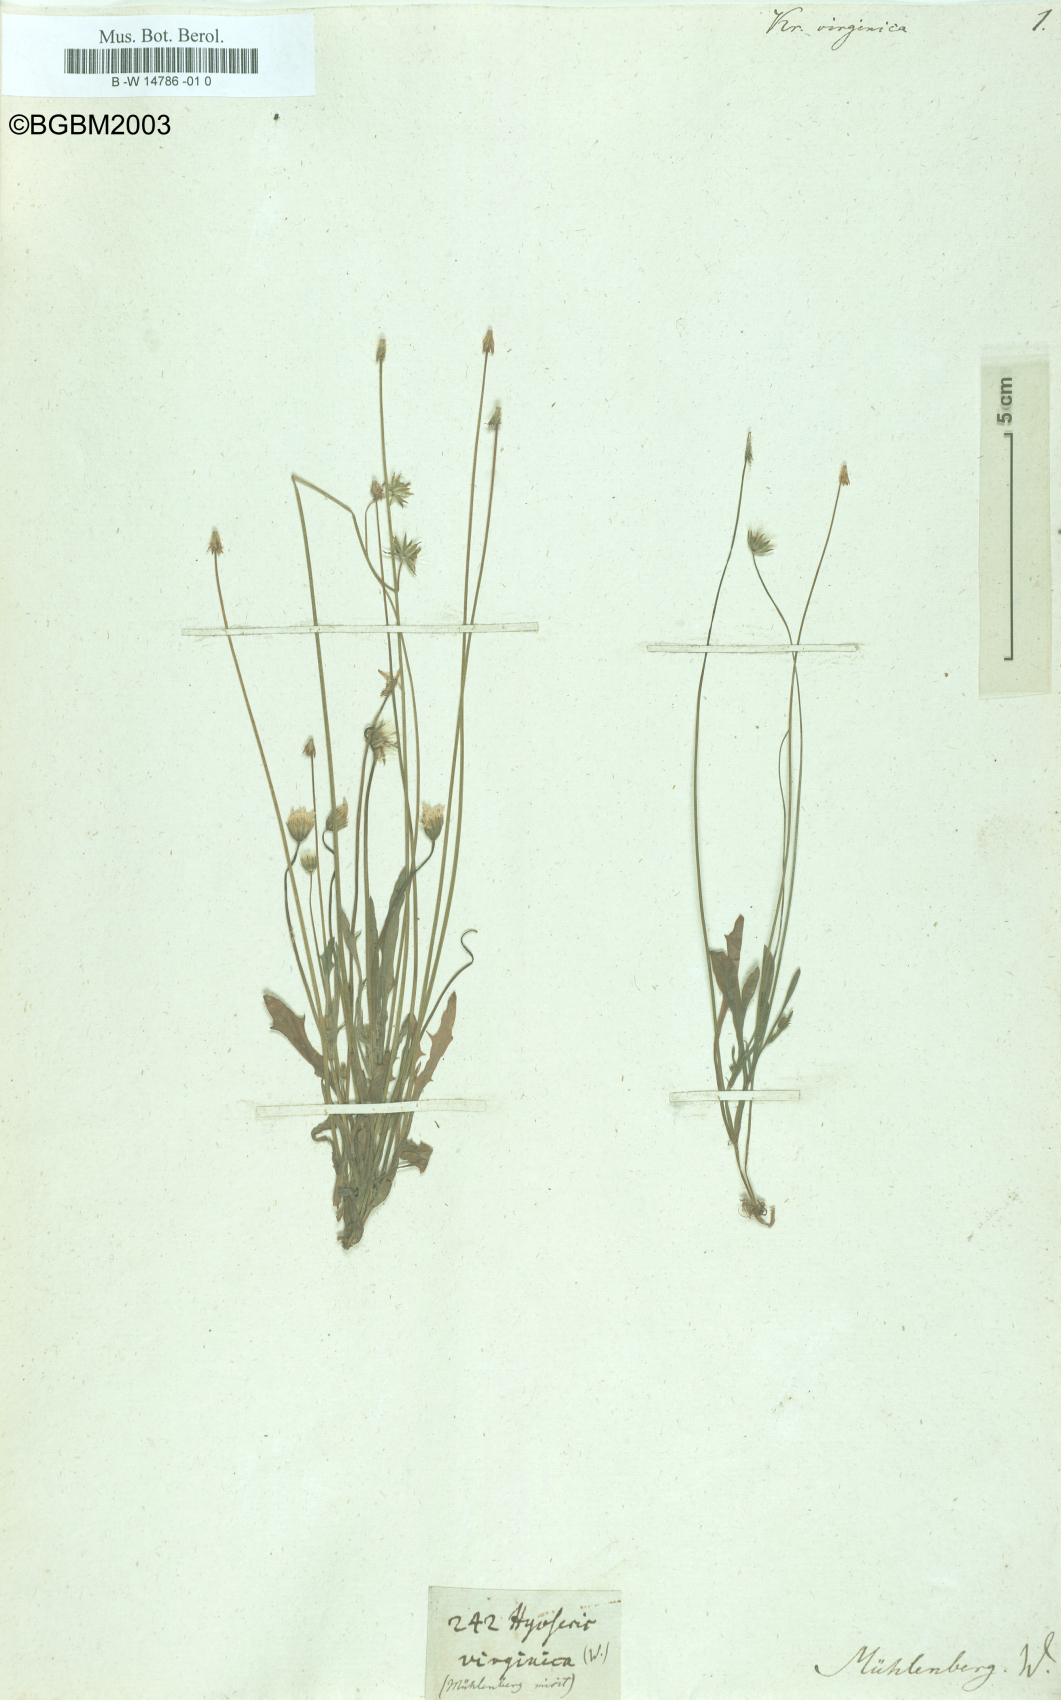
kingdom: Plantae
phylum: Tracheophyta
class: Magnoliopsida
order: Asterales
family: Asteraceae
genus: Krigia
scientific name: Krigia virginica
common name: Virginia dwarf-dandelion
